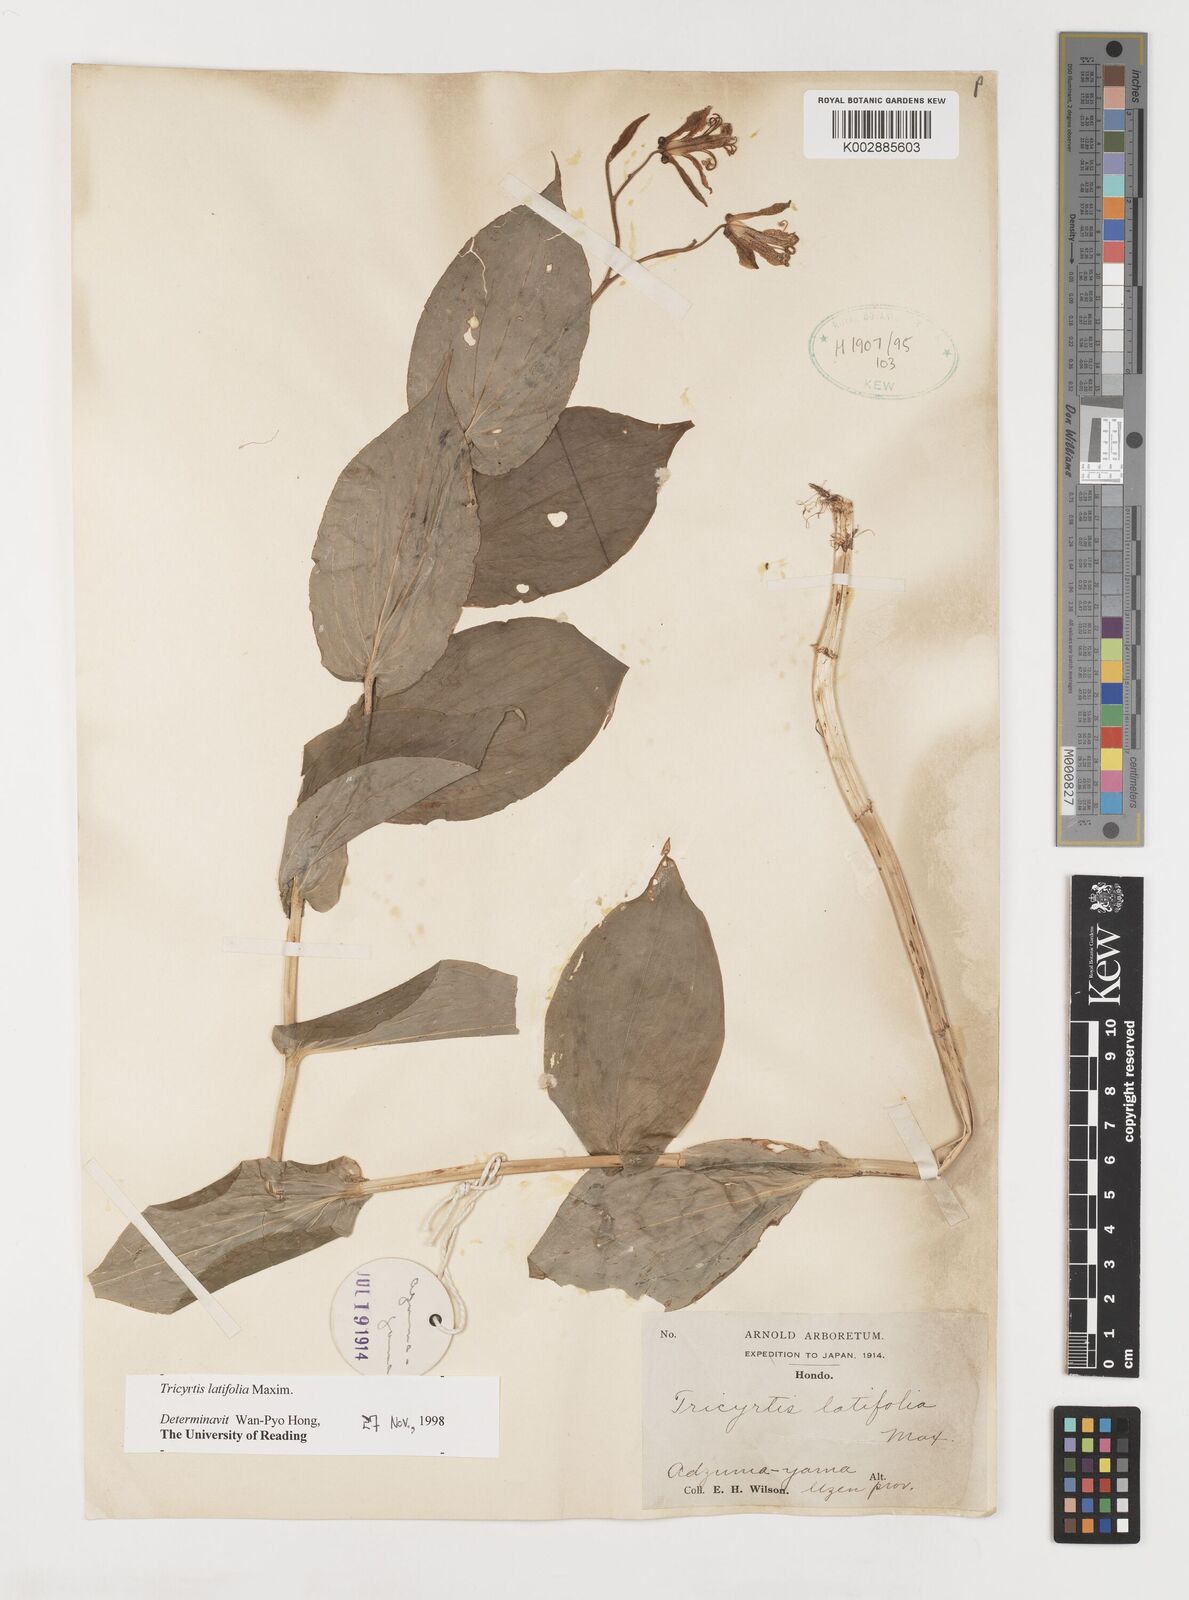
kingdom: Plantae
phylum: Tracheophyta
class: Liliopsida
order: Liliales
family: Liliaceae
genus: Tricyrtis
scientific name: Tricyrtis latifolia
